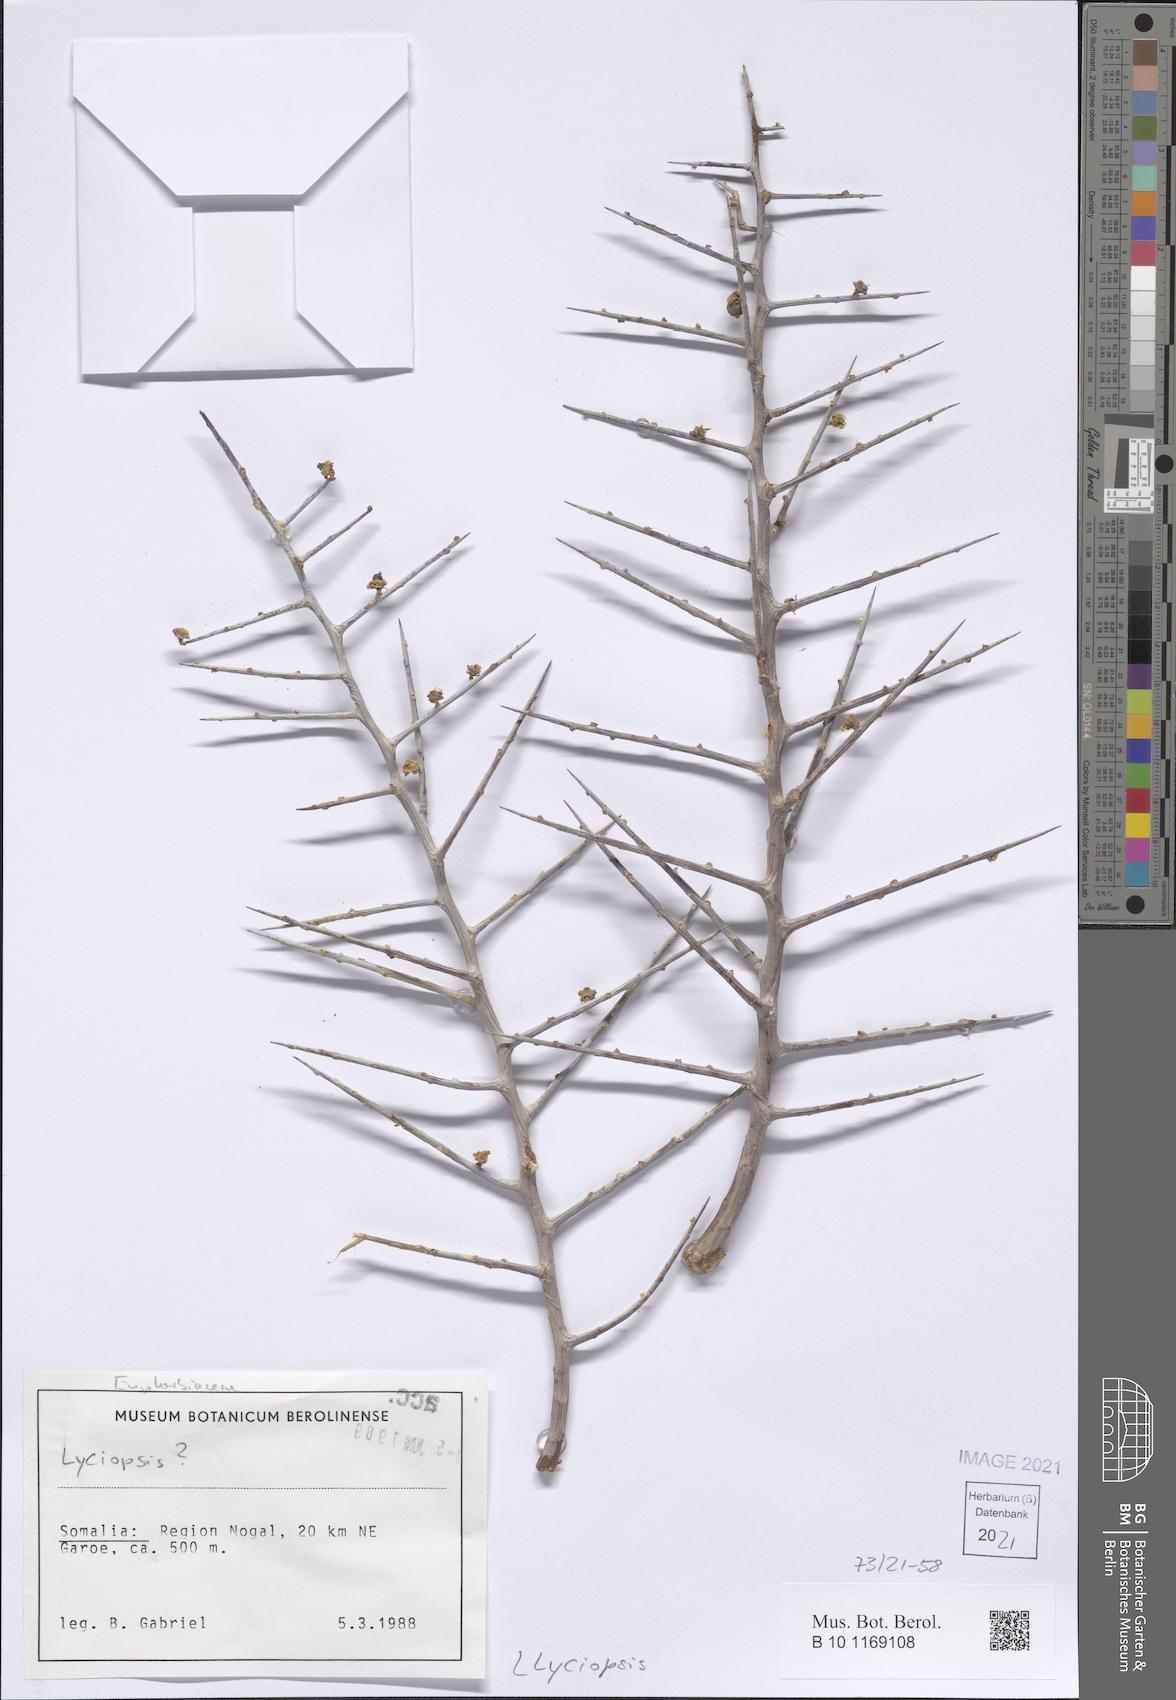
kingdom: Plantae
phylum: Tracheophyta
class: Magnoliopsida
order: Malpighiales
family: Euphorbiaceae
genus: Euphorbia
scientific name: Euphorbia
